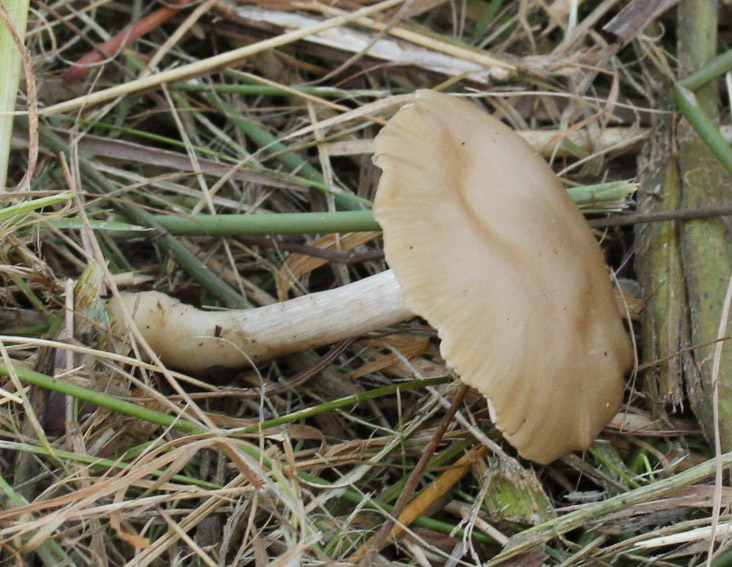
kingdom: Fungi
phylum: Basidiomycota
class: Agaricomycetes
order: Agaricales
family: Entolomataceae
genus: Entoloma
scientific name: Entoloma sericatum
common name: rank rødblad
